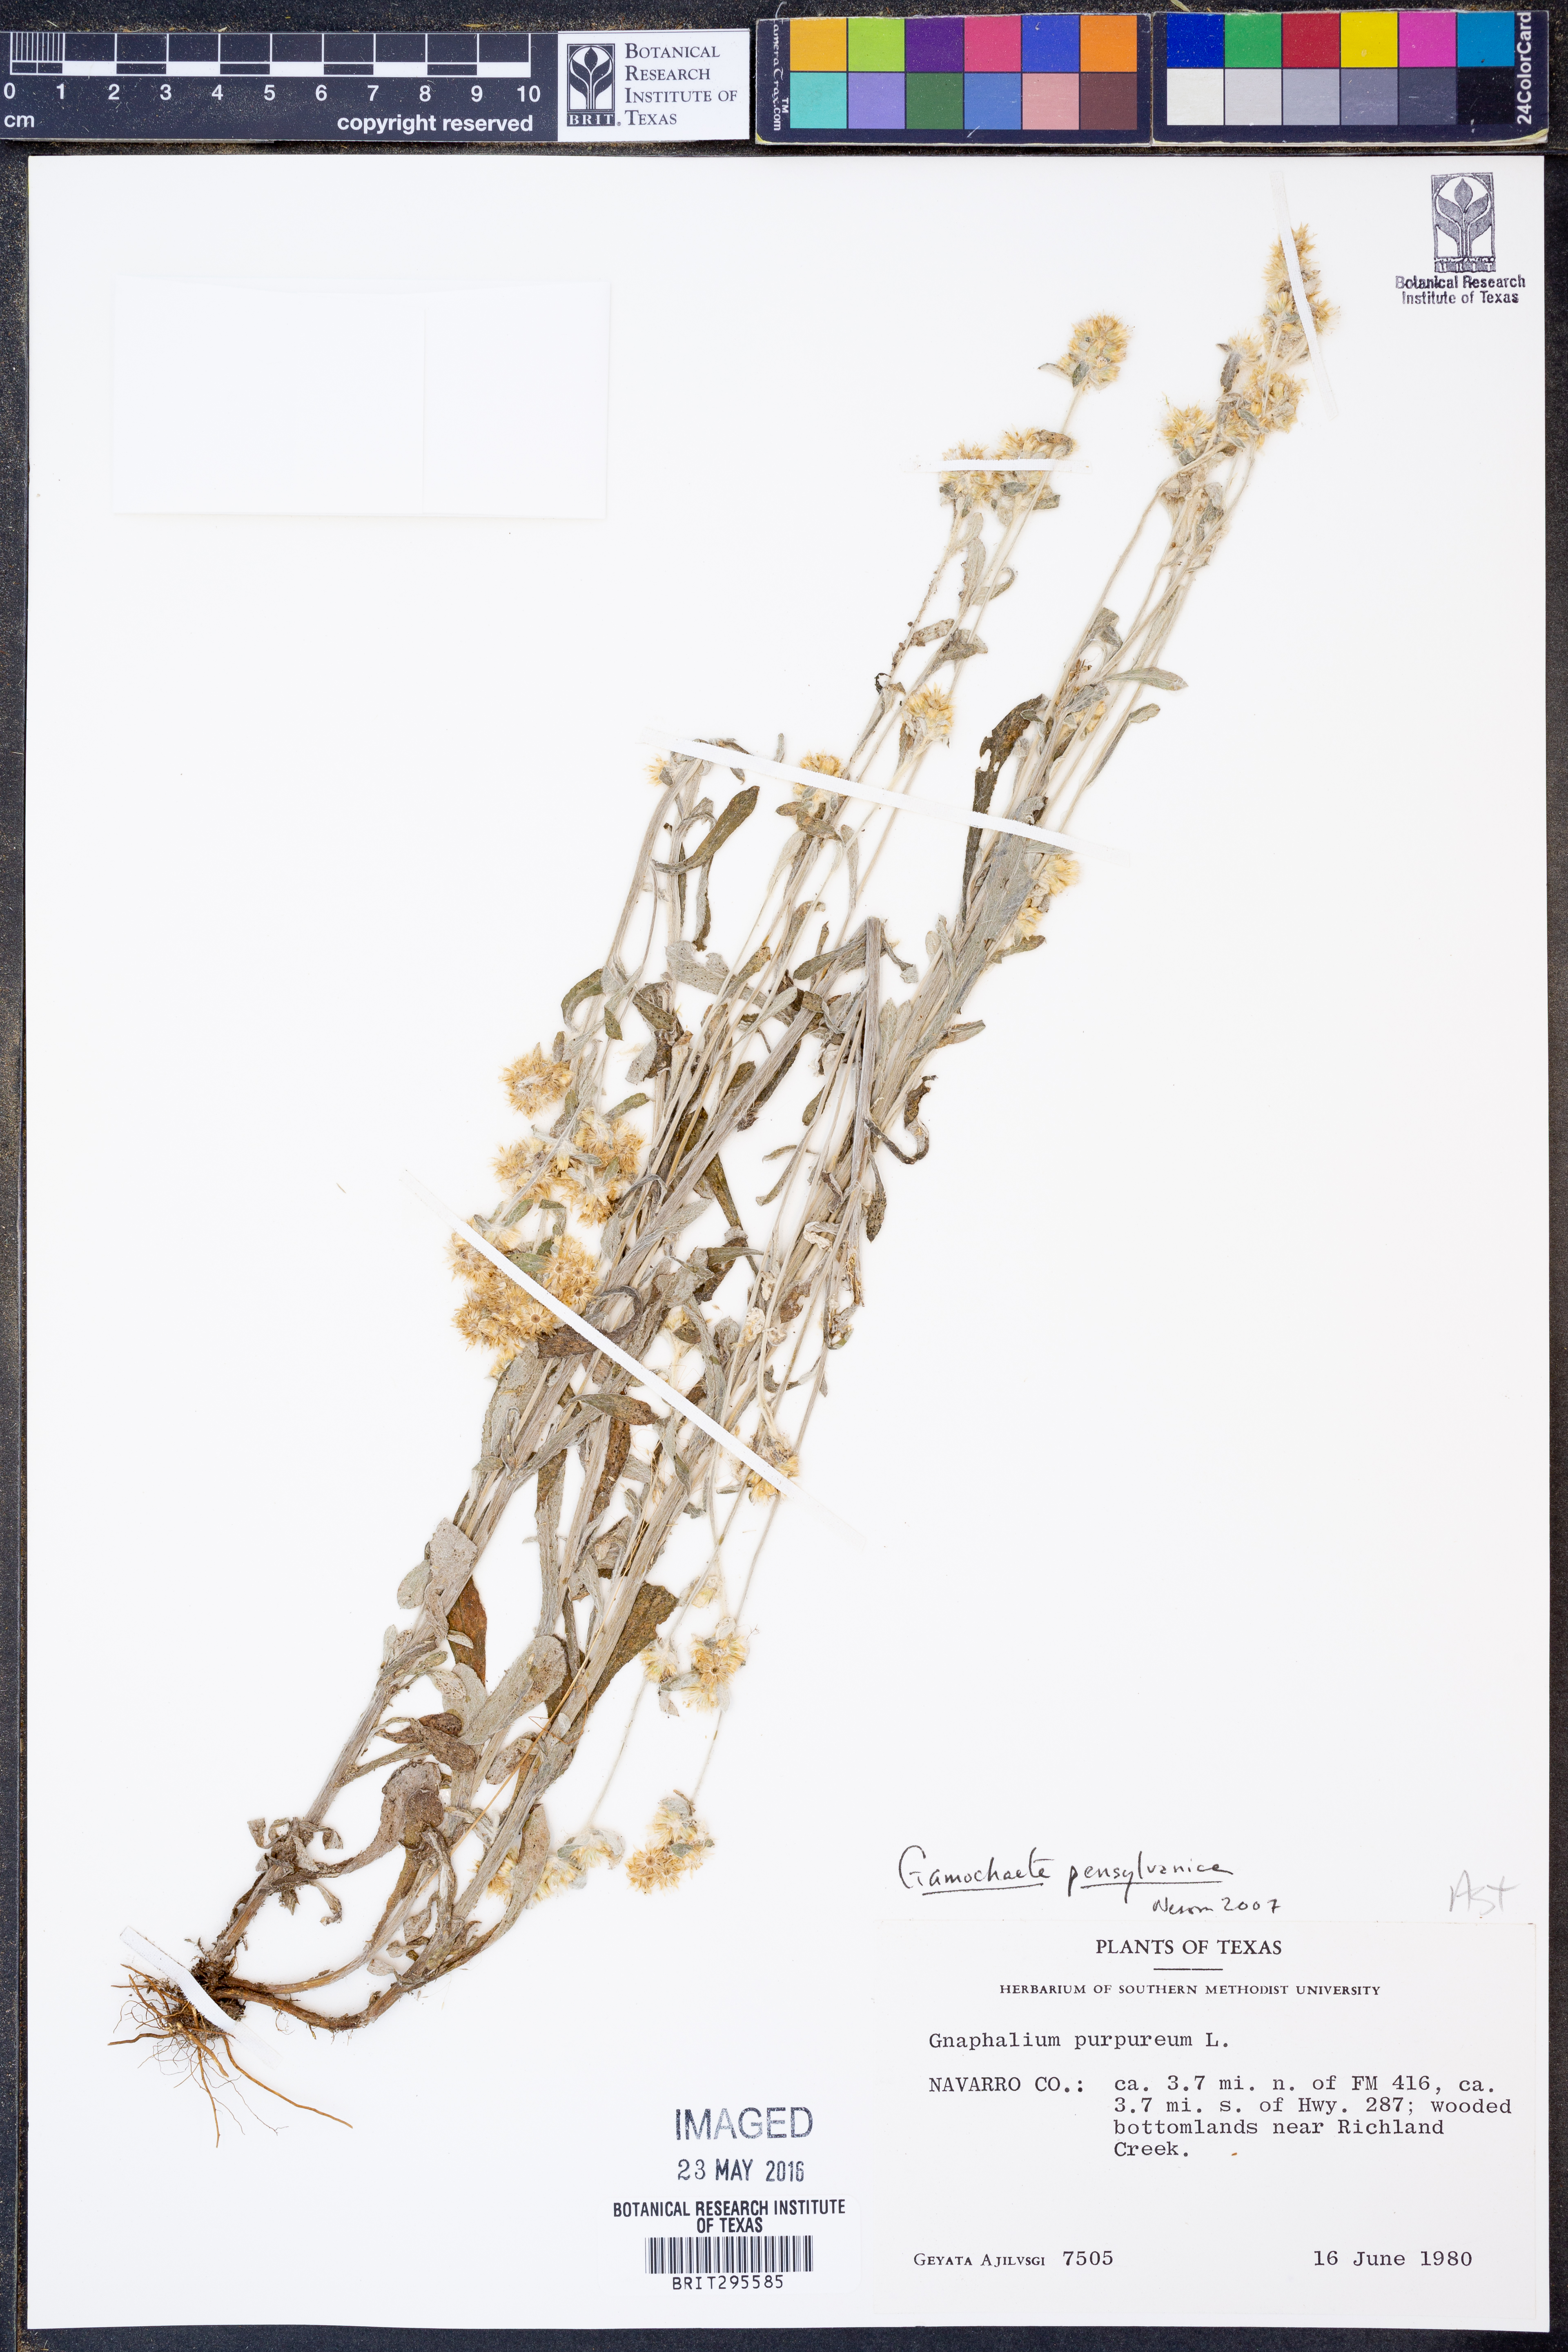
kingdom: Plantae
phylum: Tracheophyta
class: Magnoliopsida
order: Asterales
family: Asteraceae
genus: Gamochaeta
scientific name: Gamochaeta pensylvanica
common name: Pennsylvania everlasting
